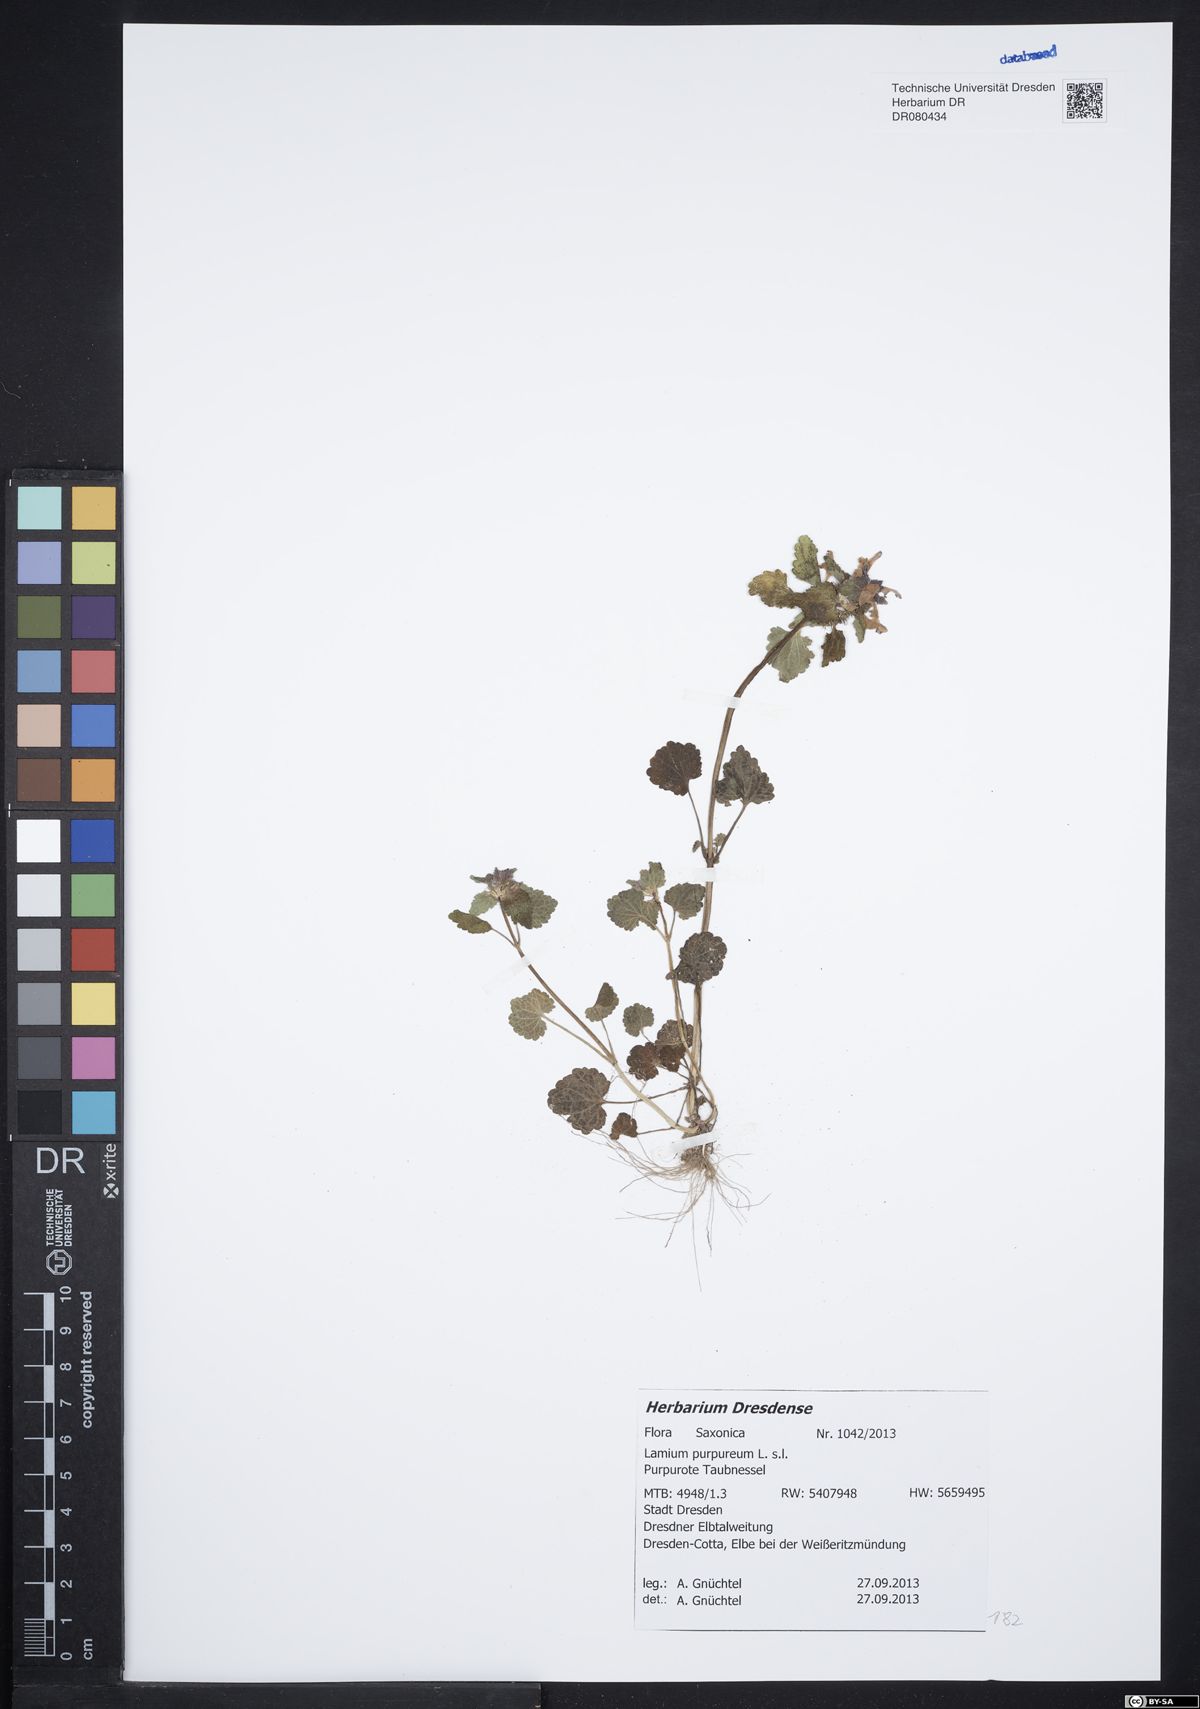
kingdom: Plantae
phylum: Tracheophyta
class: Magnoliopsida
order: Lamiales
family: Lamiaceae
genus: Lamium
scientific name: Lamium purpureum
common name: Red dead-nettle
